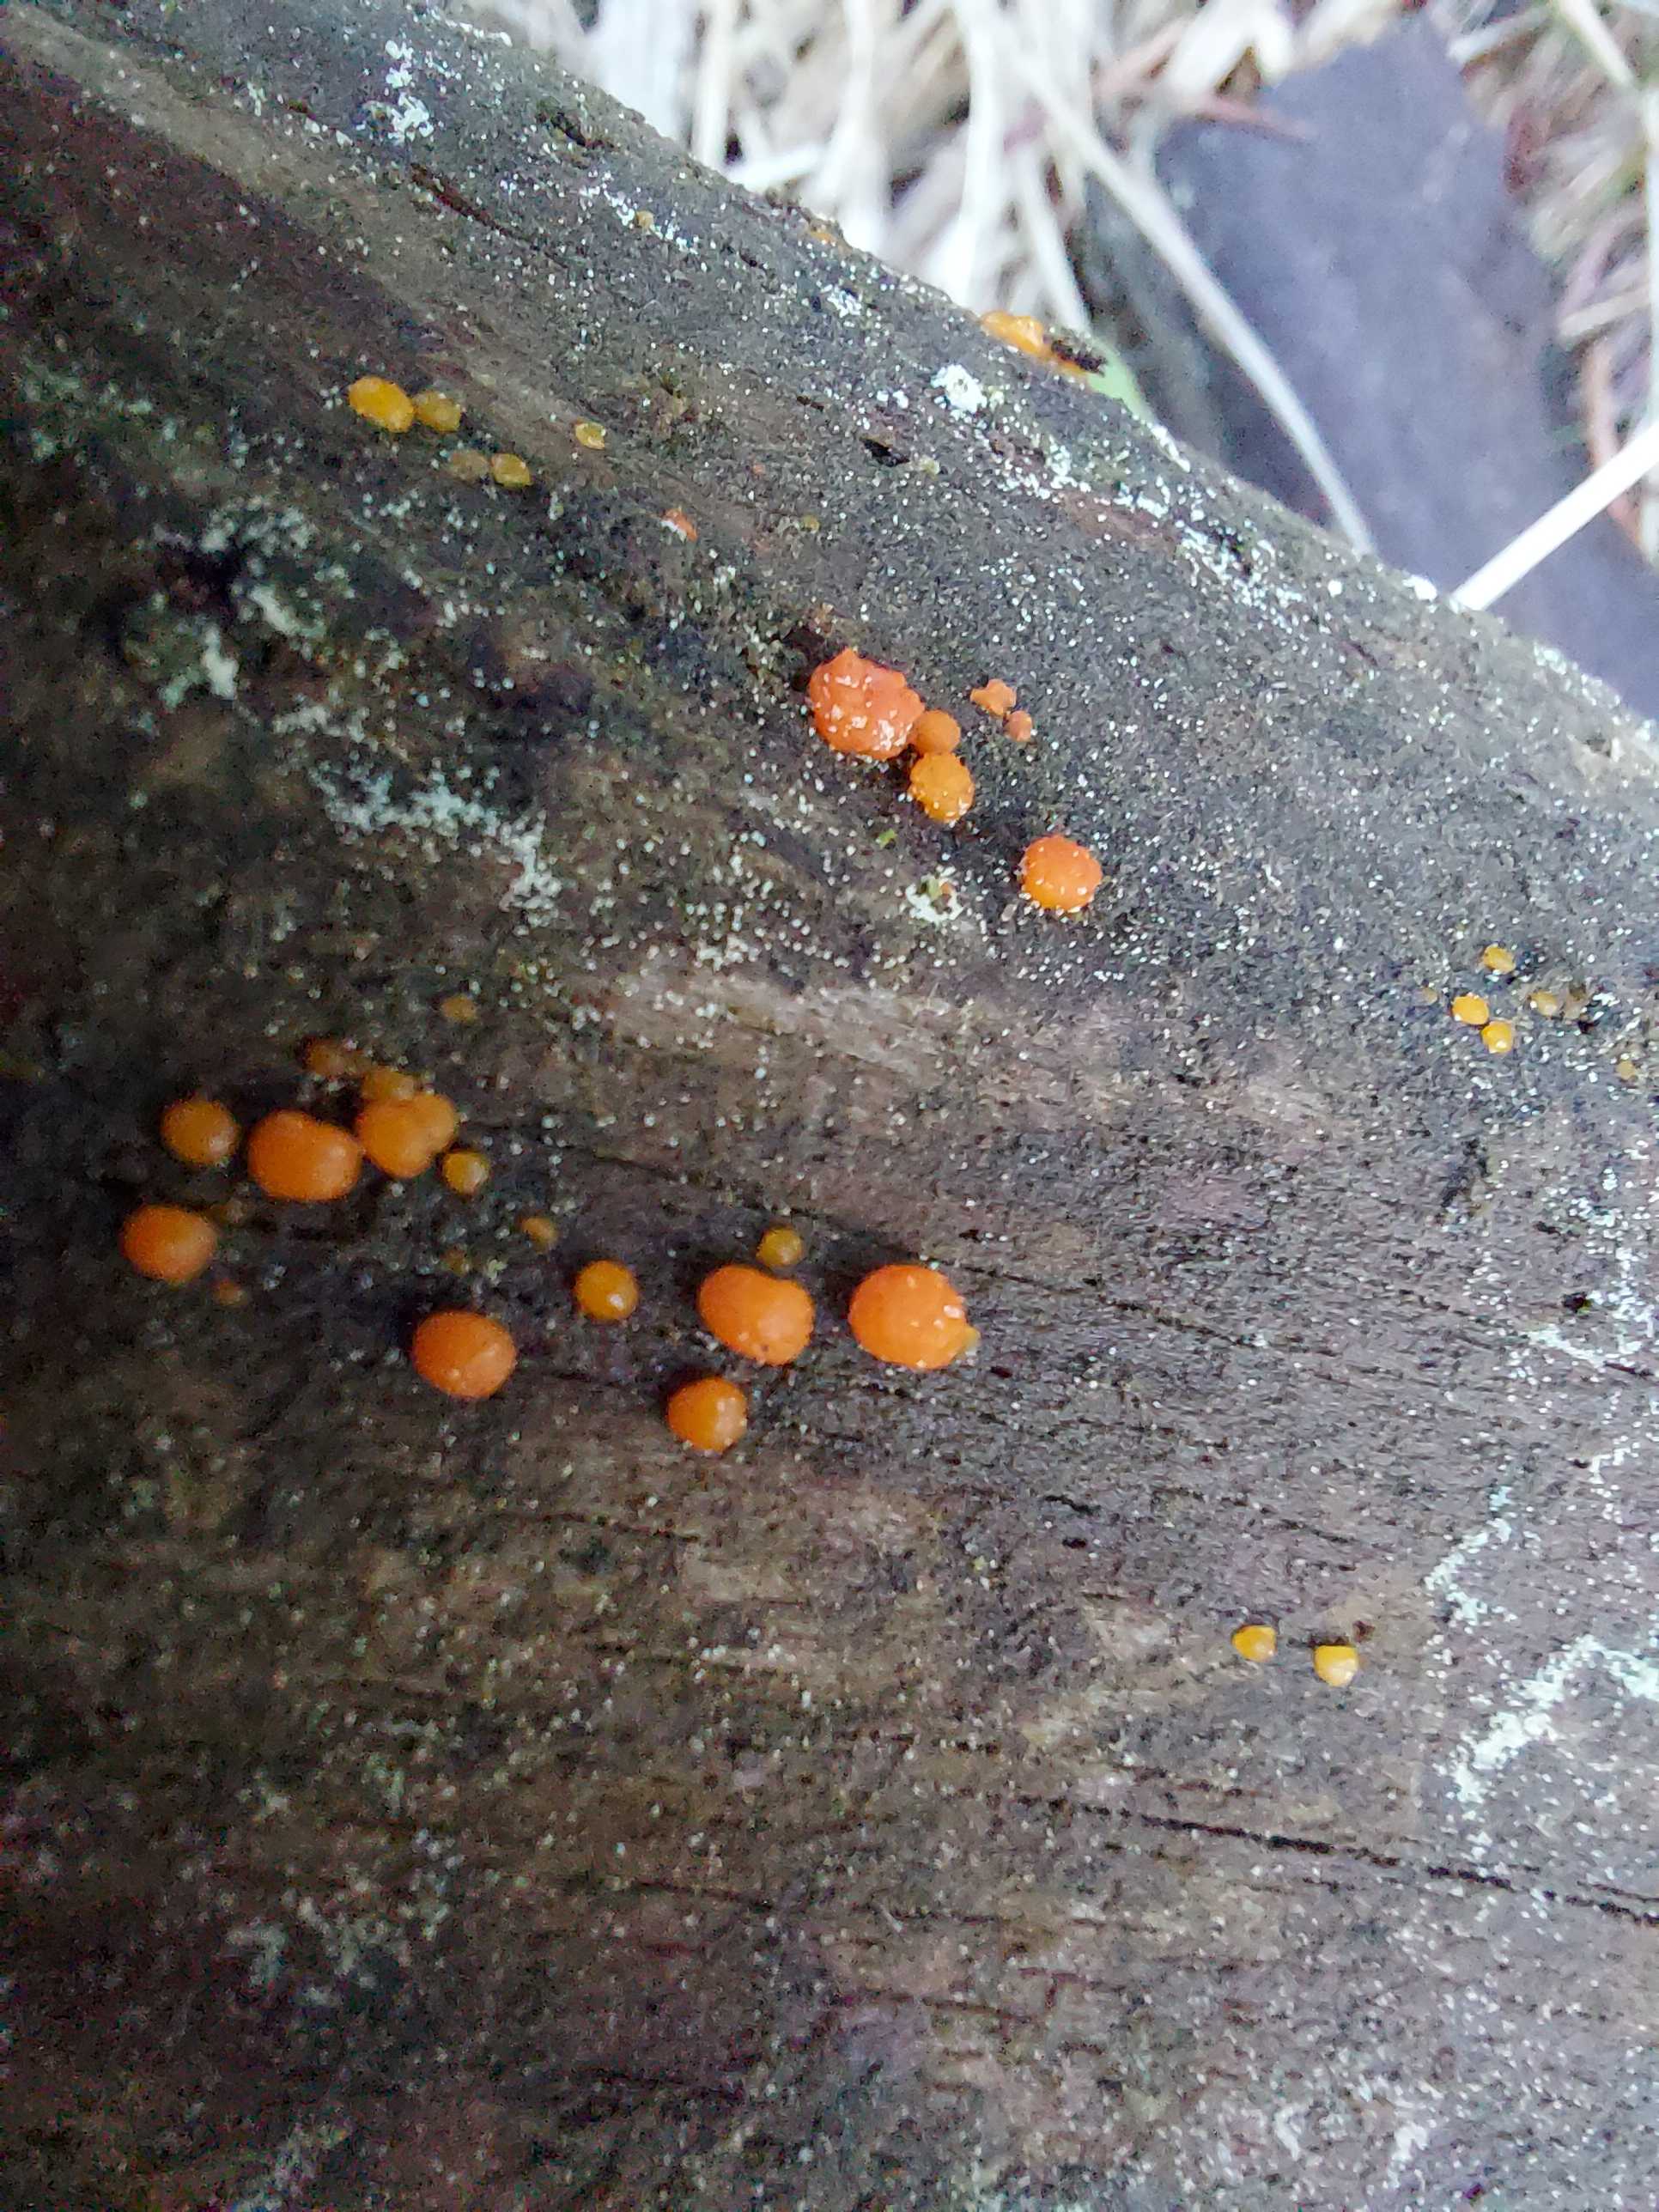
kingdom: Fungi
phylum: Basidiomycota
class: Dacrymycetes
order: Dacrymycetales
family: Dacrymycetaceae
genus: Dacrymyces
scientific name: Dacrymyces stillatus
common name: almindelig tåresvamp
